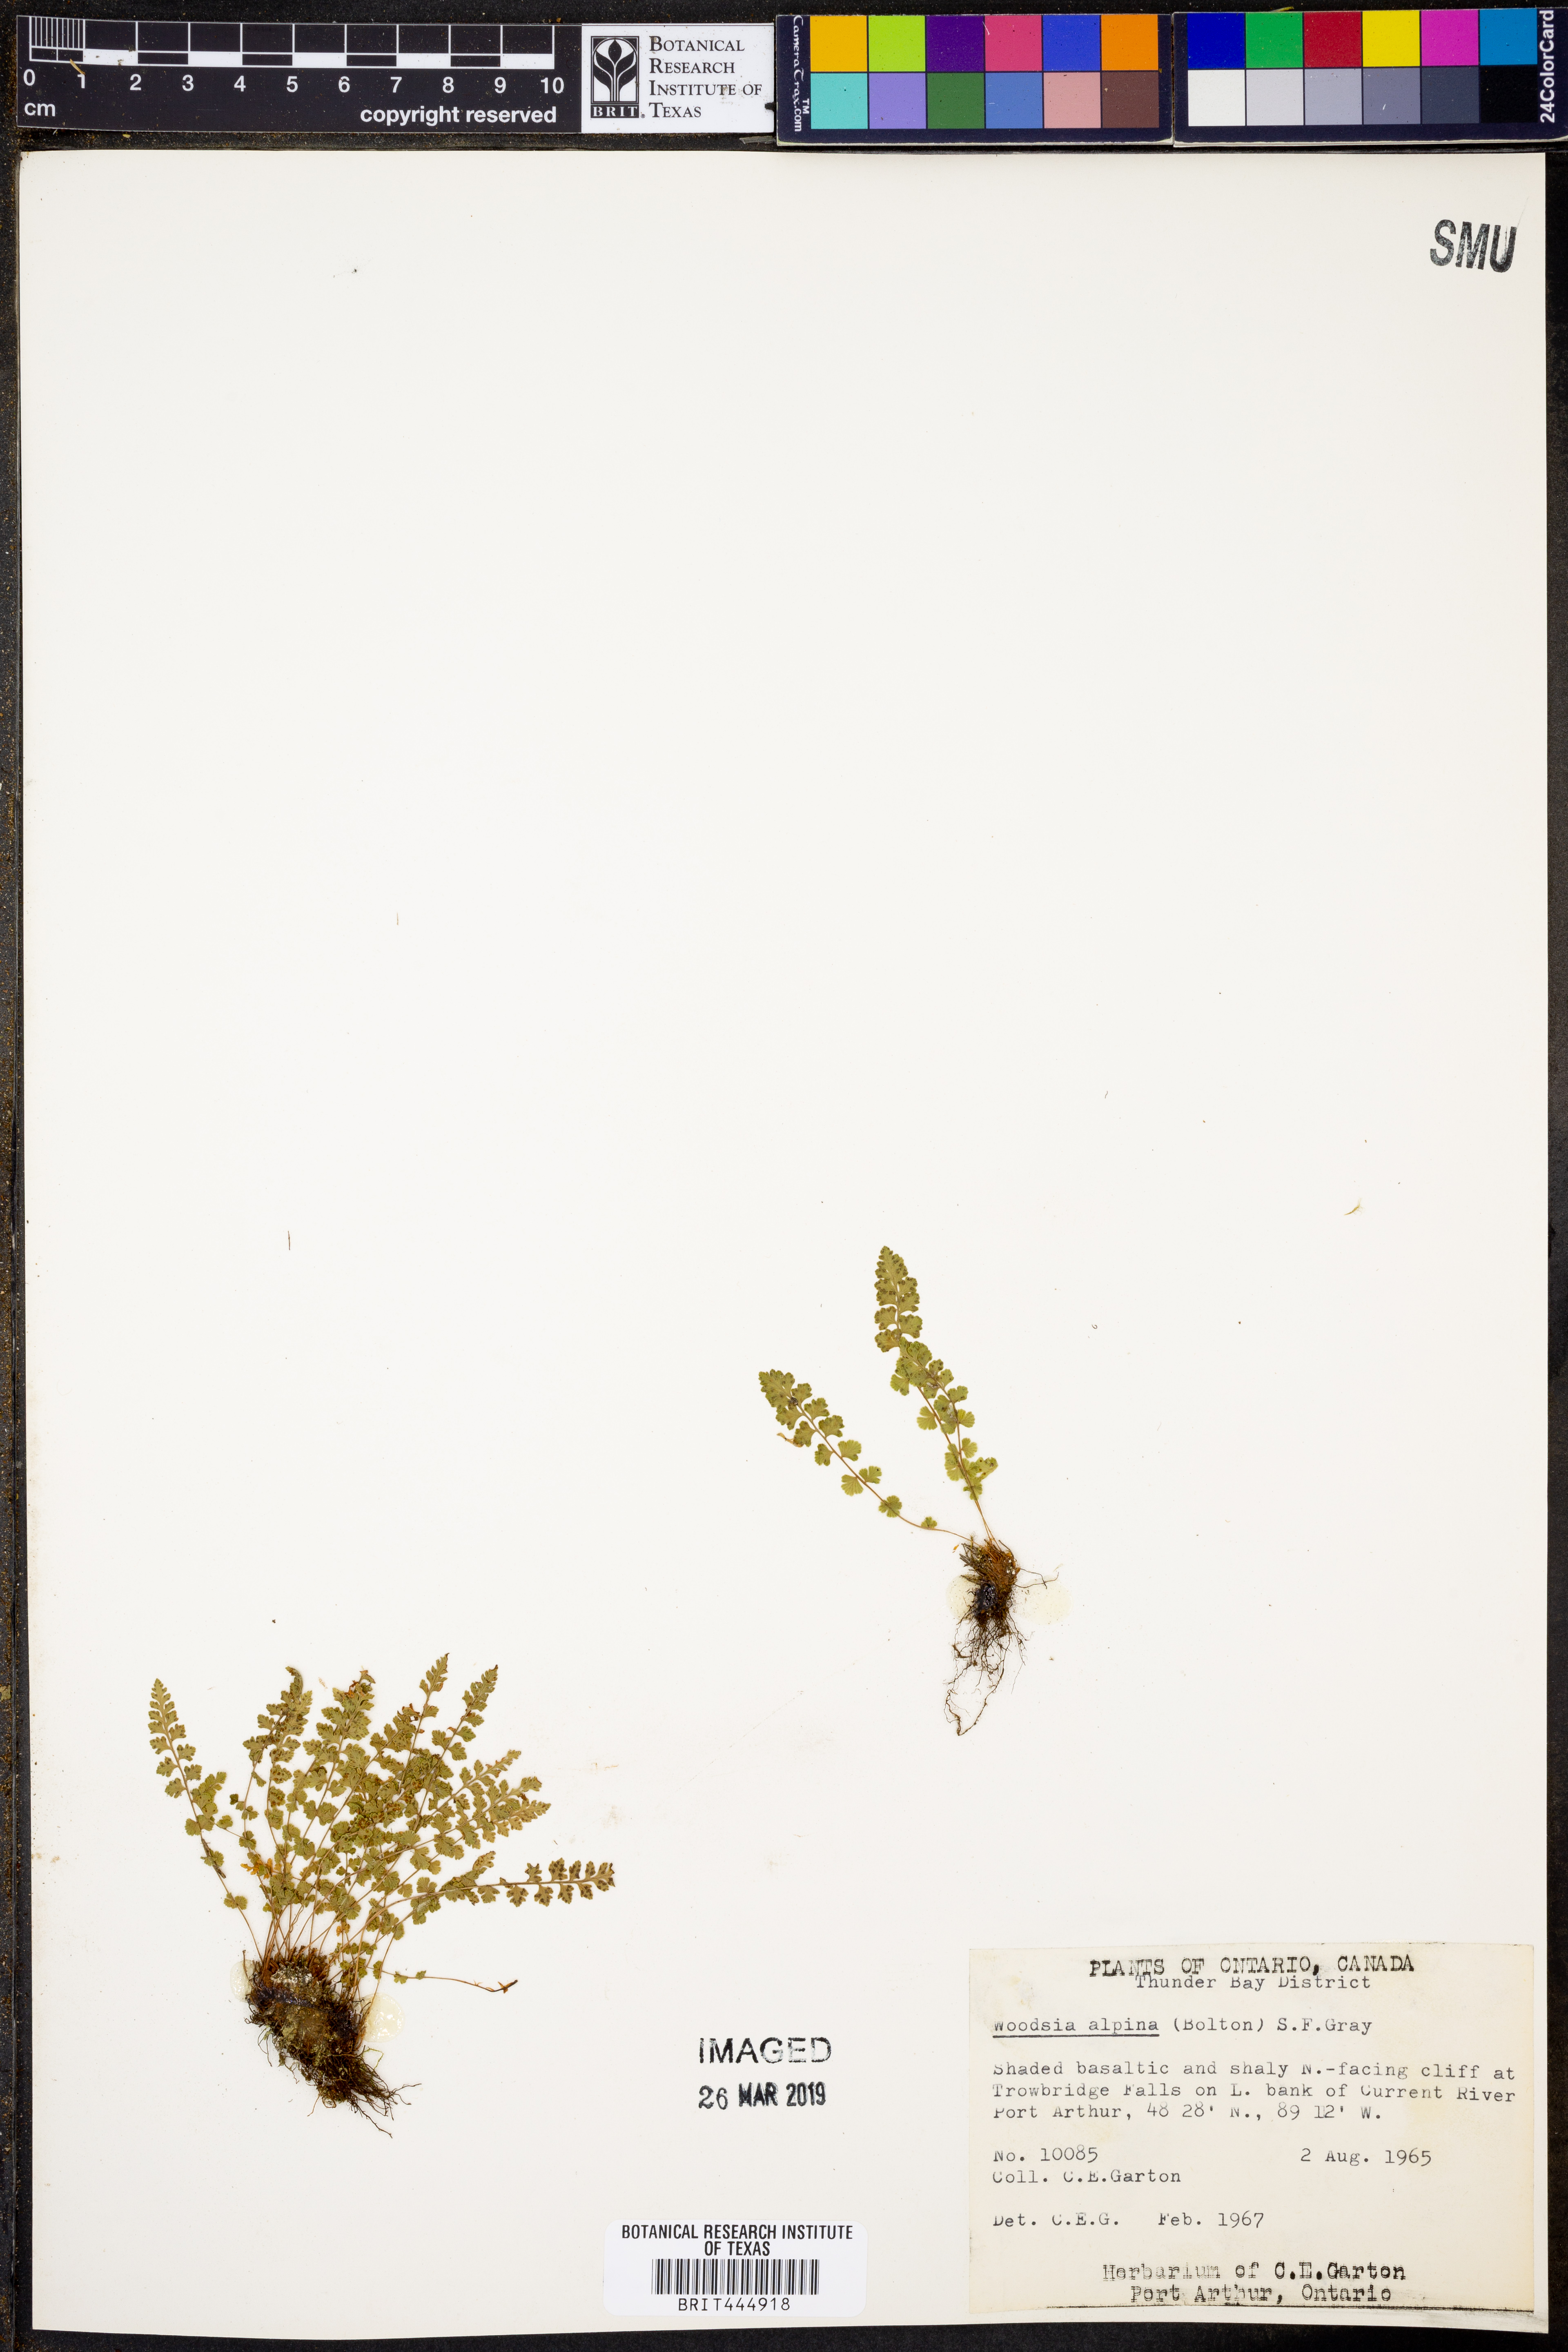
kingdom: Plantae
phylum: Tracheophyta
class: Polypodiopsida
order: Polypodiales
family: Woodsiaceae
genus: Woodsia
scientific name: Woodsia alpina
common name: Alpine woodsia
